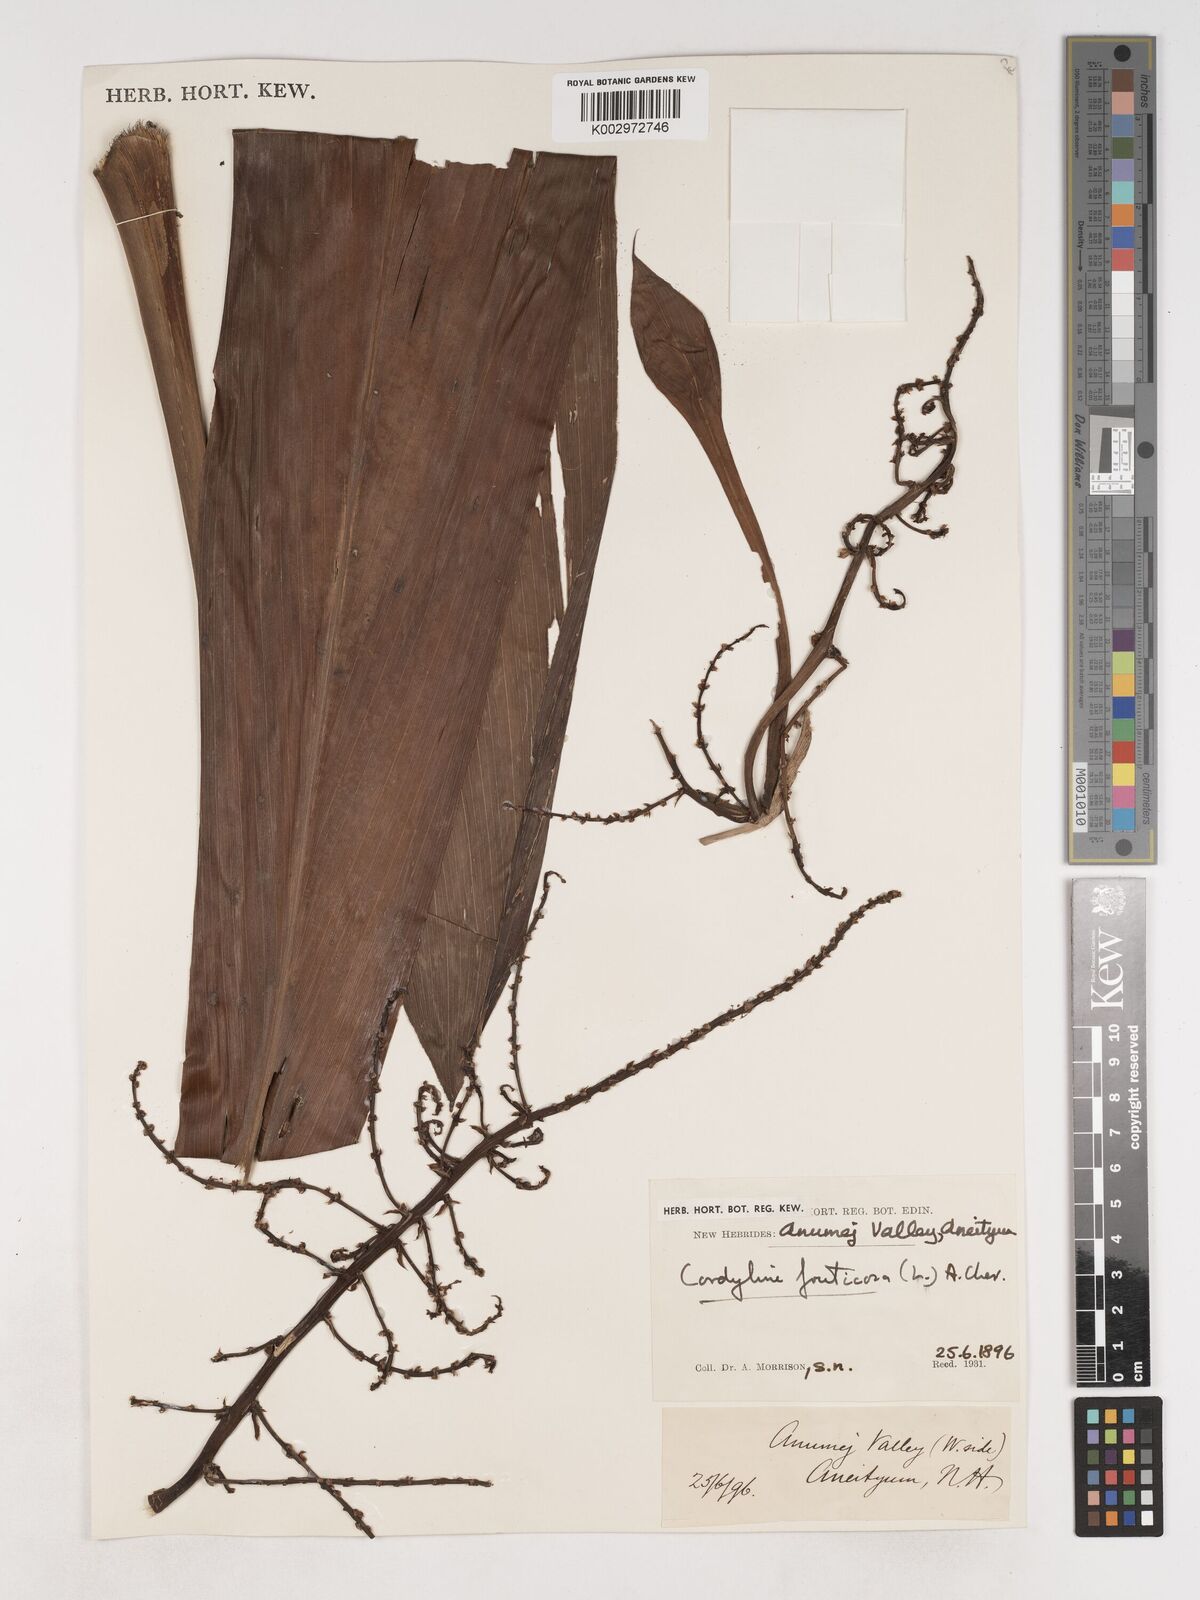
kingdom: Plantae
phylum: Tracheophyta
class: Liliopsida
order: Asparagales
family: Asparagaceae
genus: Cordyline
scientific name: Cordyline fruticosa
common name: Good-luck-plant
